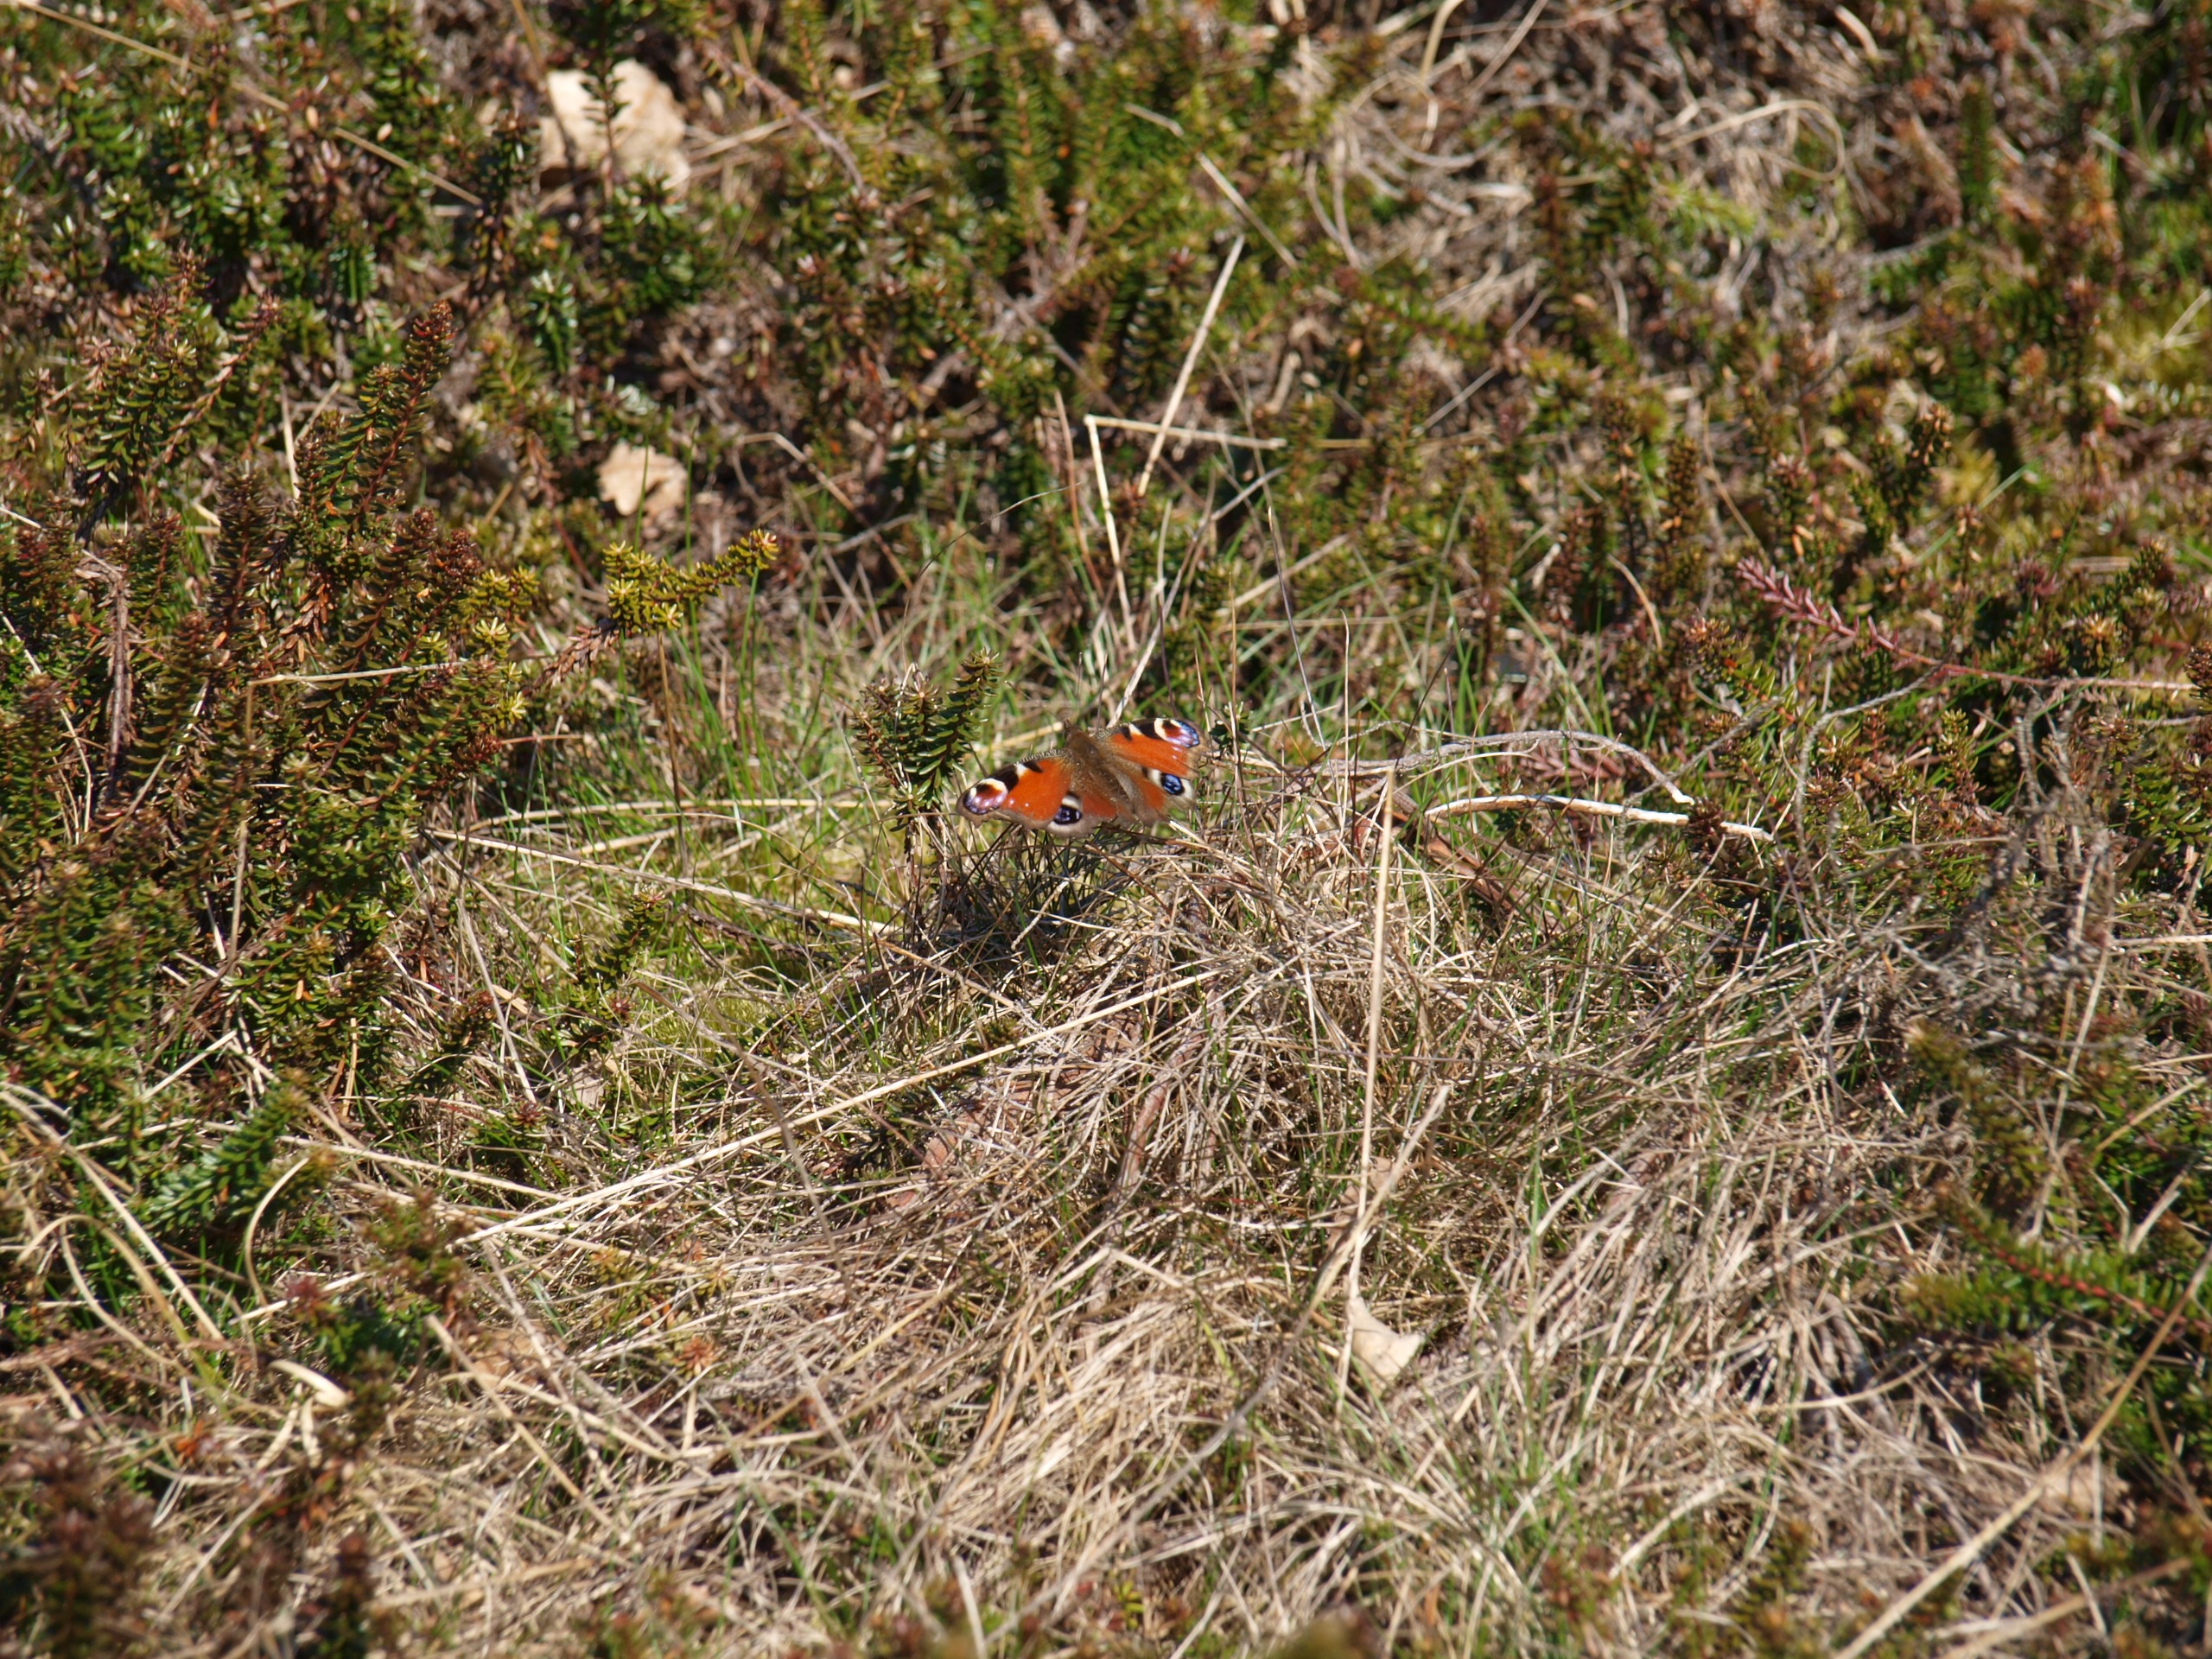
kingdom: Animalia
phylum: Arthropoda
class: Insecta
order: Lepidoptera
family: Nymphalidae
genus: Aglais
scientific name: Aglais io
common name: Dagpåfugleøje
